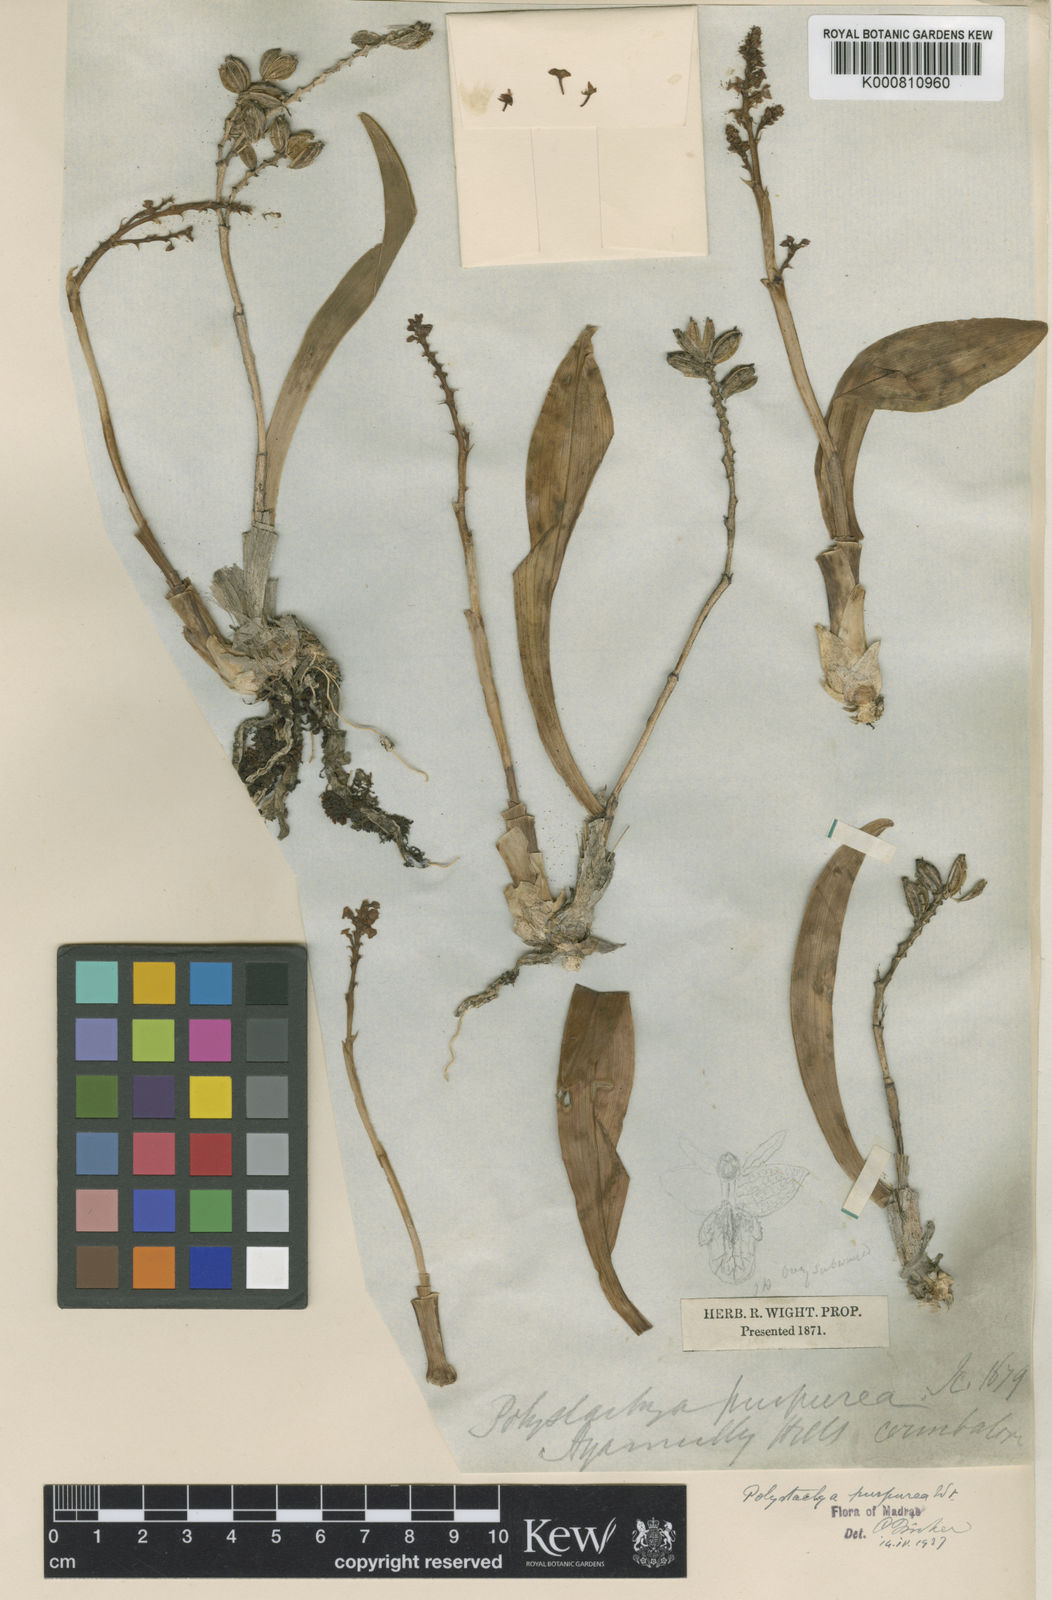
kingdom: Plantae
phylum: Tracheophyta
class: Liliopsida
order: Asparagales
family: Orchidaceae
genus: Polystachya
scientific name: Polystachya concreta
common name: Greater yellowspike orchid
